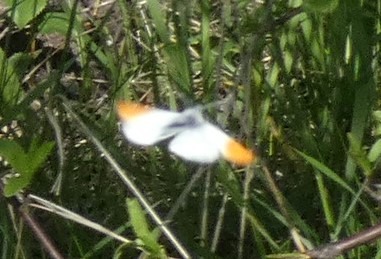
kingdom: Animalia
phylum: Arthropoda
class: Insecta
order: Lepidoptera
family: Pieridae
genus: Anthocharis
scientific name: Anthocharis cardamines
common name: Aurora
